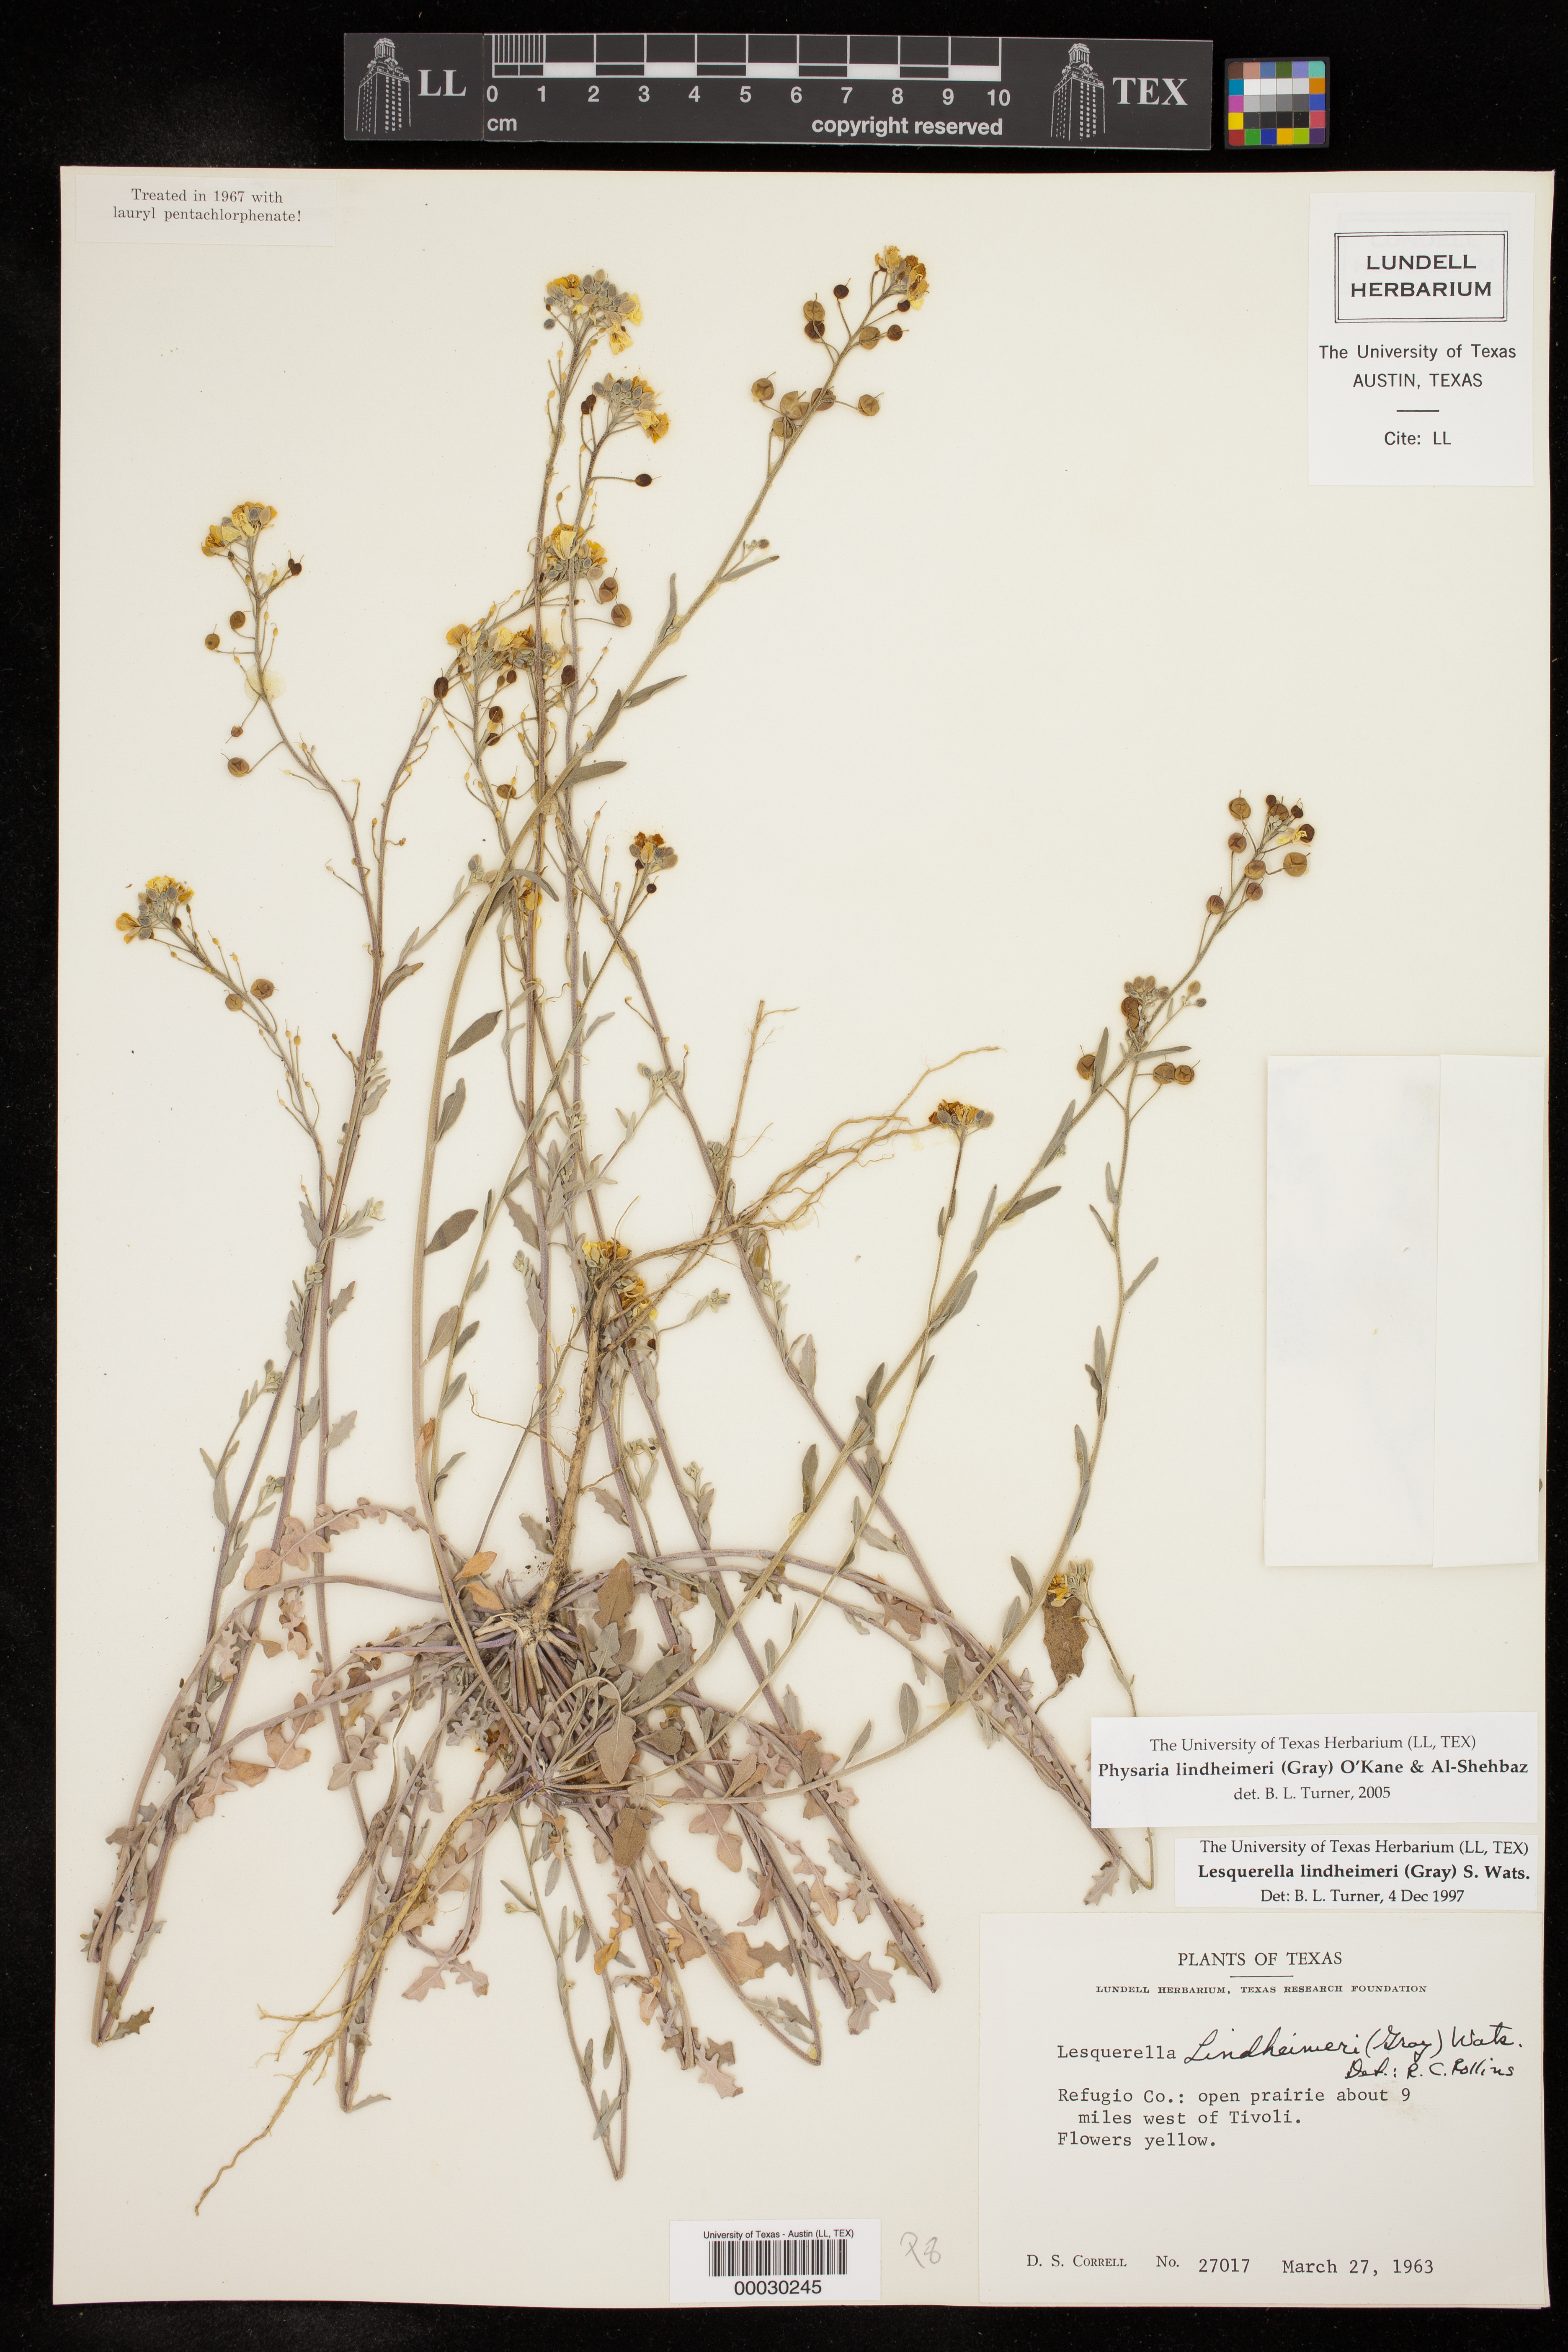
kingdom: Plantae
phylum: Tracheophyta
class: Magnoliopsida
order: Brassicales
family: Brassicaceae
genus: Physaria
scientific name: Physaria lindheimeri
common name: Lindheimer's bladderpod
